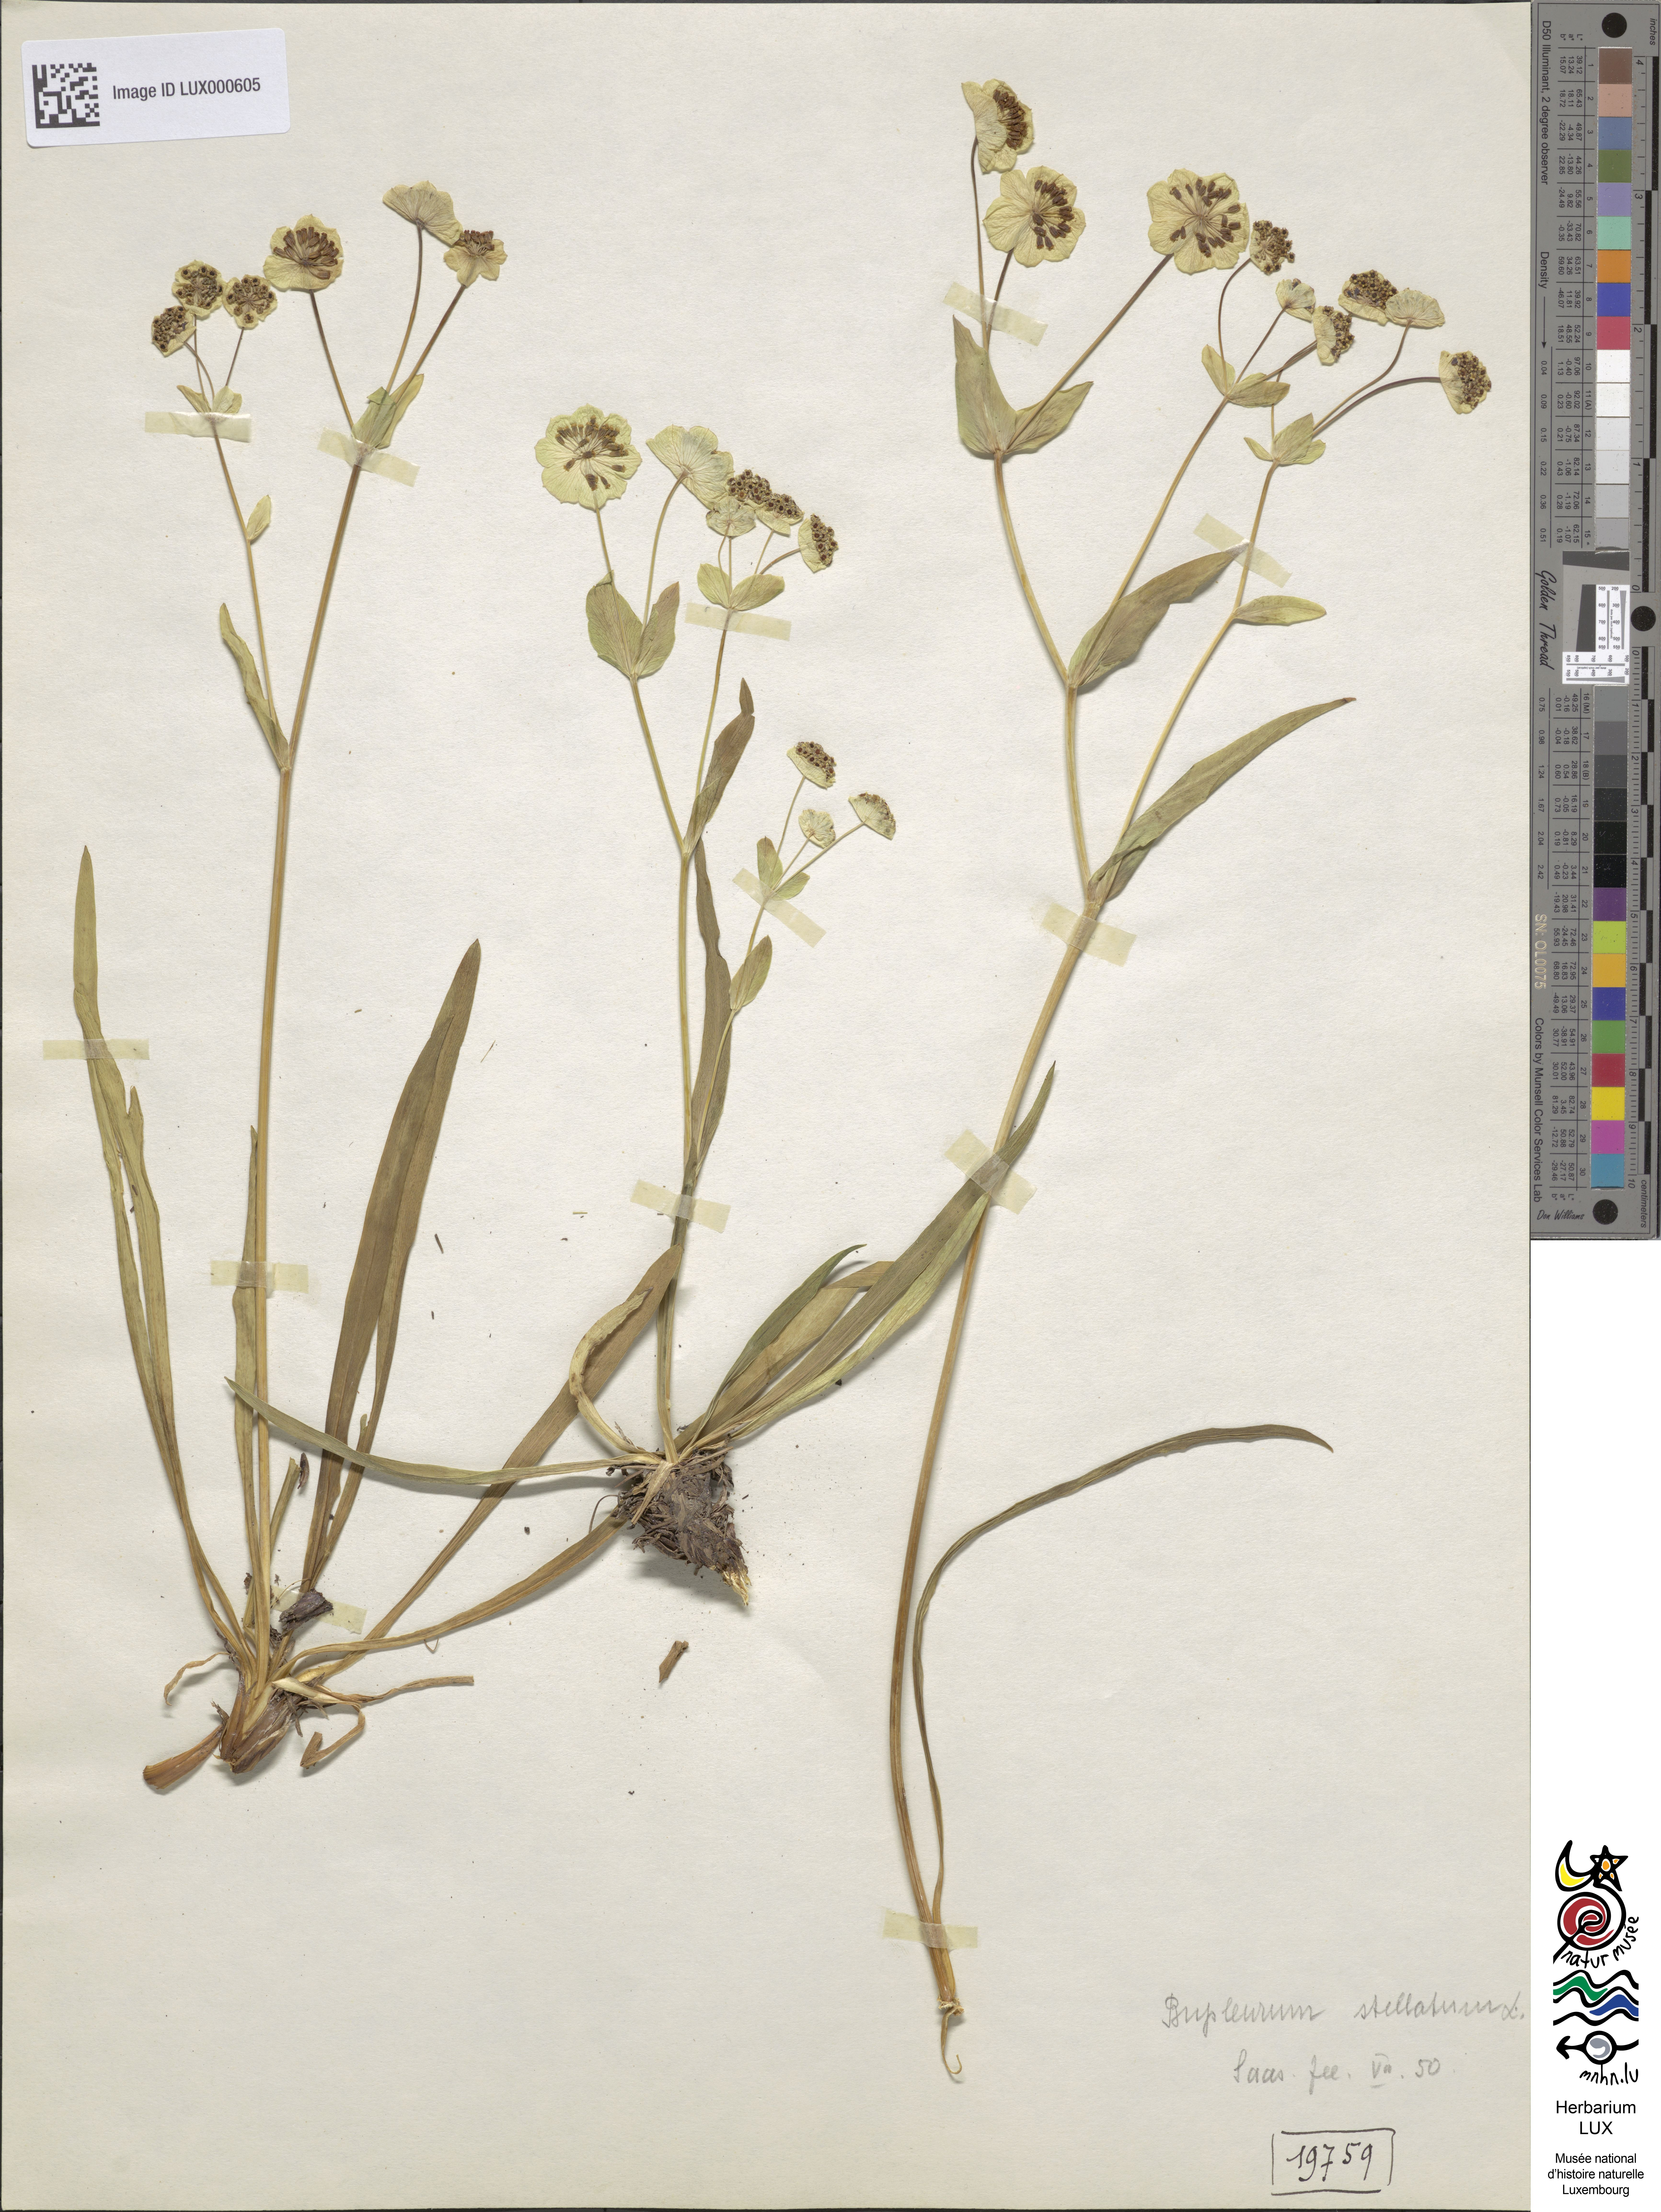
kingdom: Plantae
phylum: Tracheophyta
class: Magnoliopsida
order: Apiales
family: Apiaceae
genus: Bupleurum
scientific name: Bupleurum stellatum
